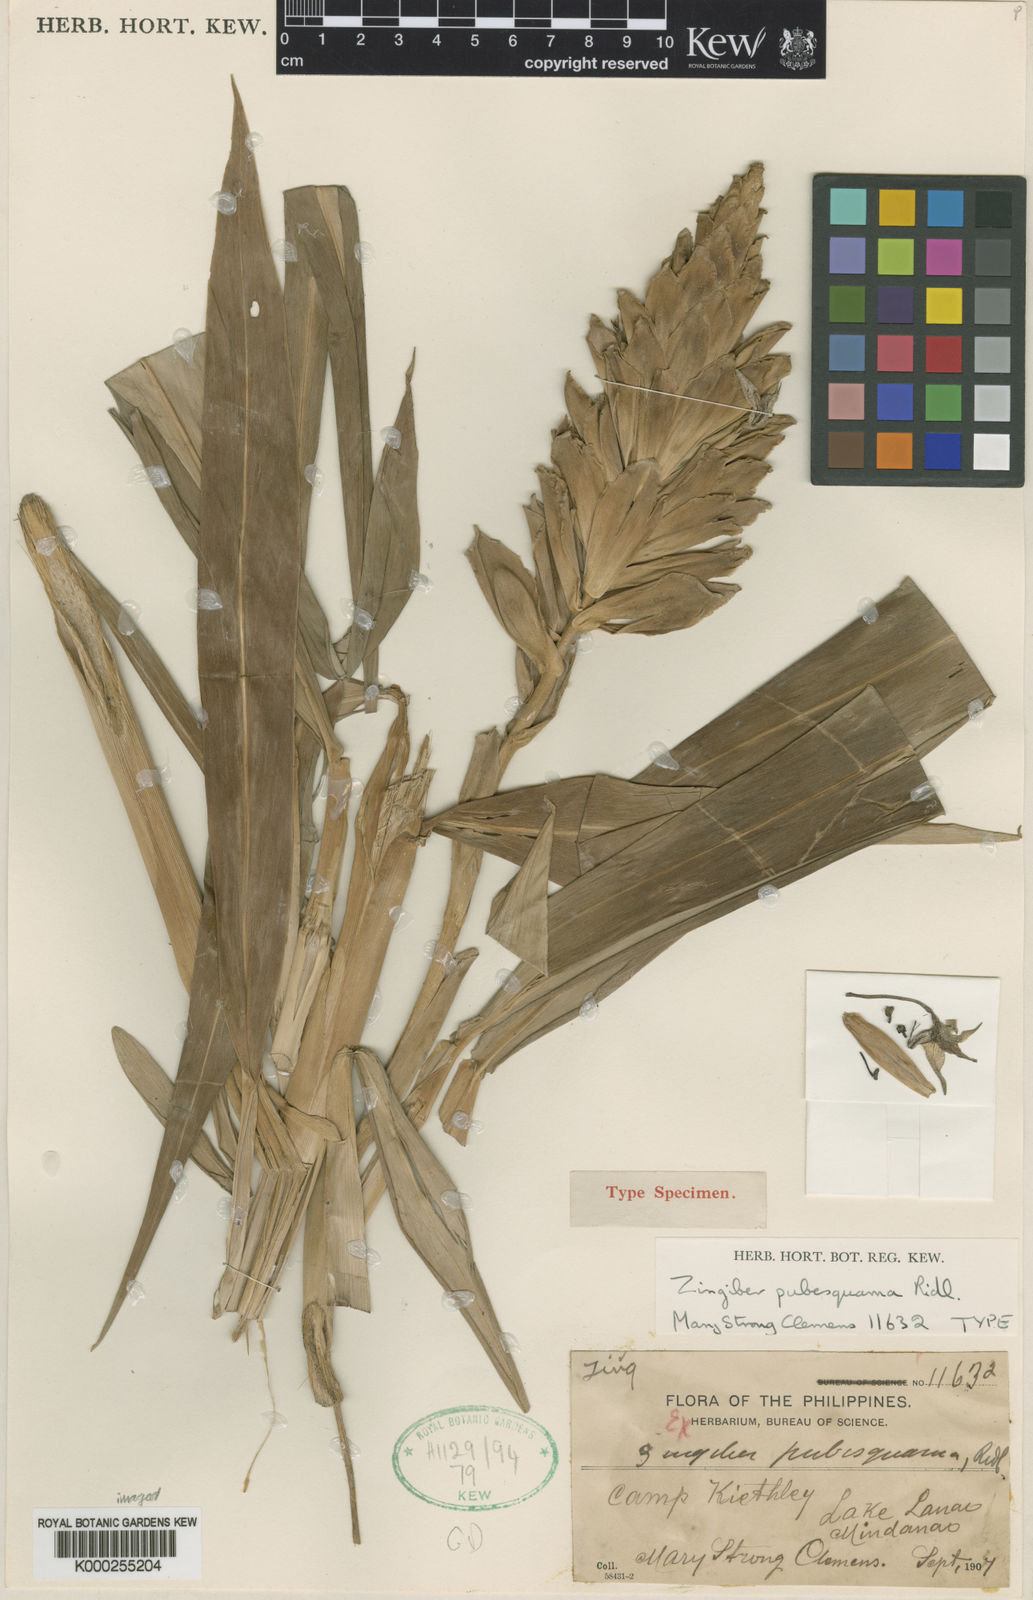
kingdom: Plantae
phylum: Tracheophyta
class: Liliopsida
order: Zingiberales
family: Zingiberaceae
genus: Zingiber
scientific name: Zingiber purpureum
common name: Cassumunar ginger
